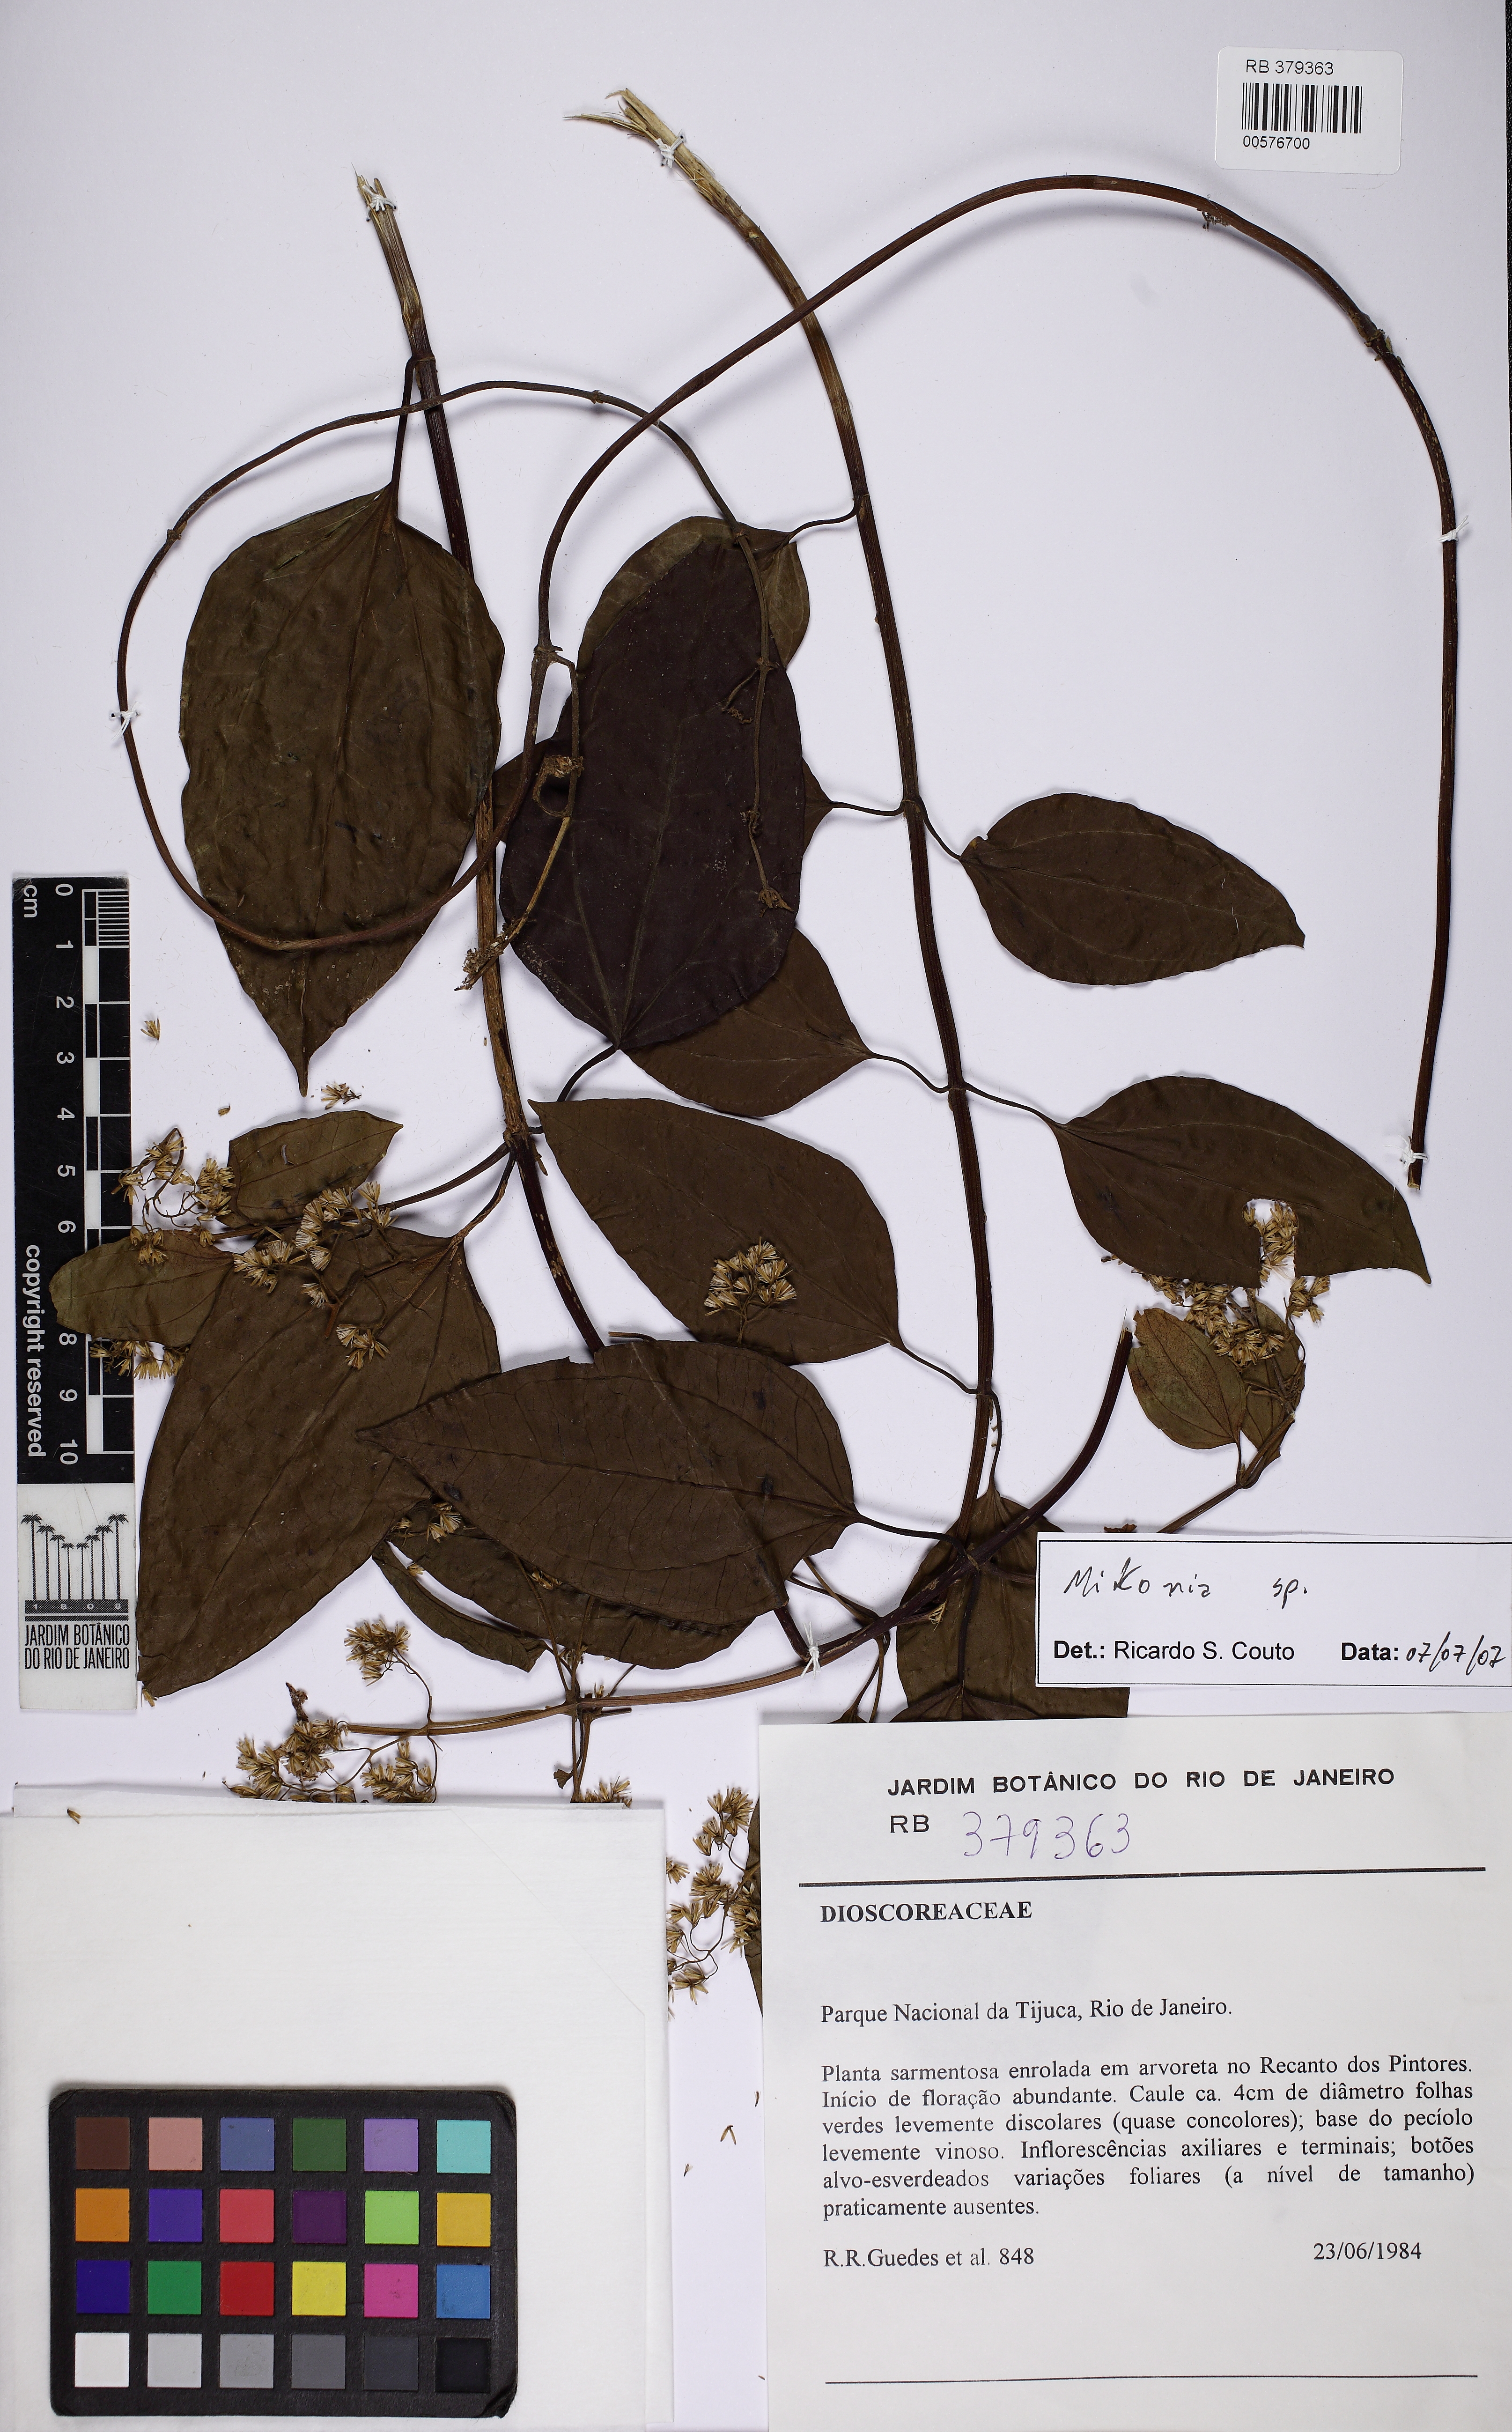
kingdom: Plantae
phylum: Tracheophyta
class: Magnoliopsida
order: Asterales
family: Asteraceae
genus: Mikania
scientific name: Mikania
